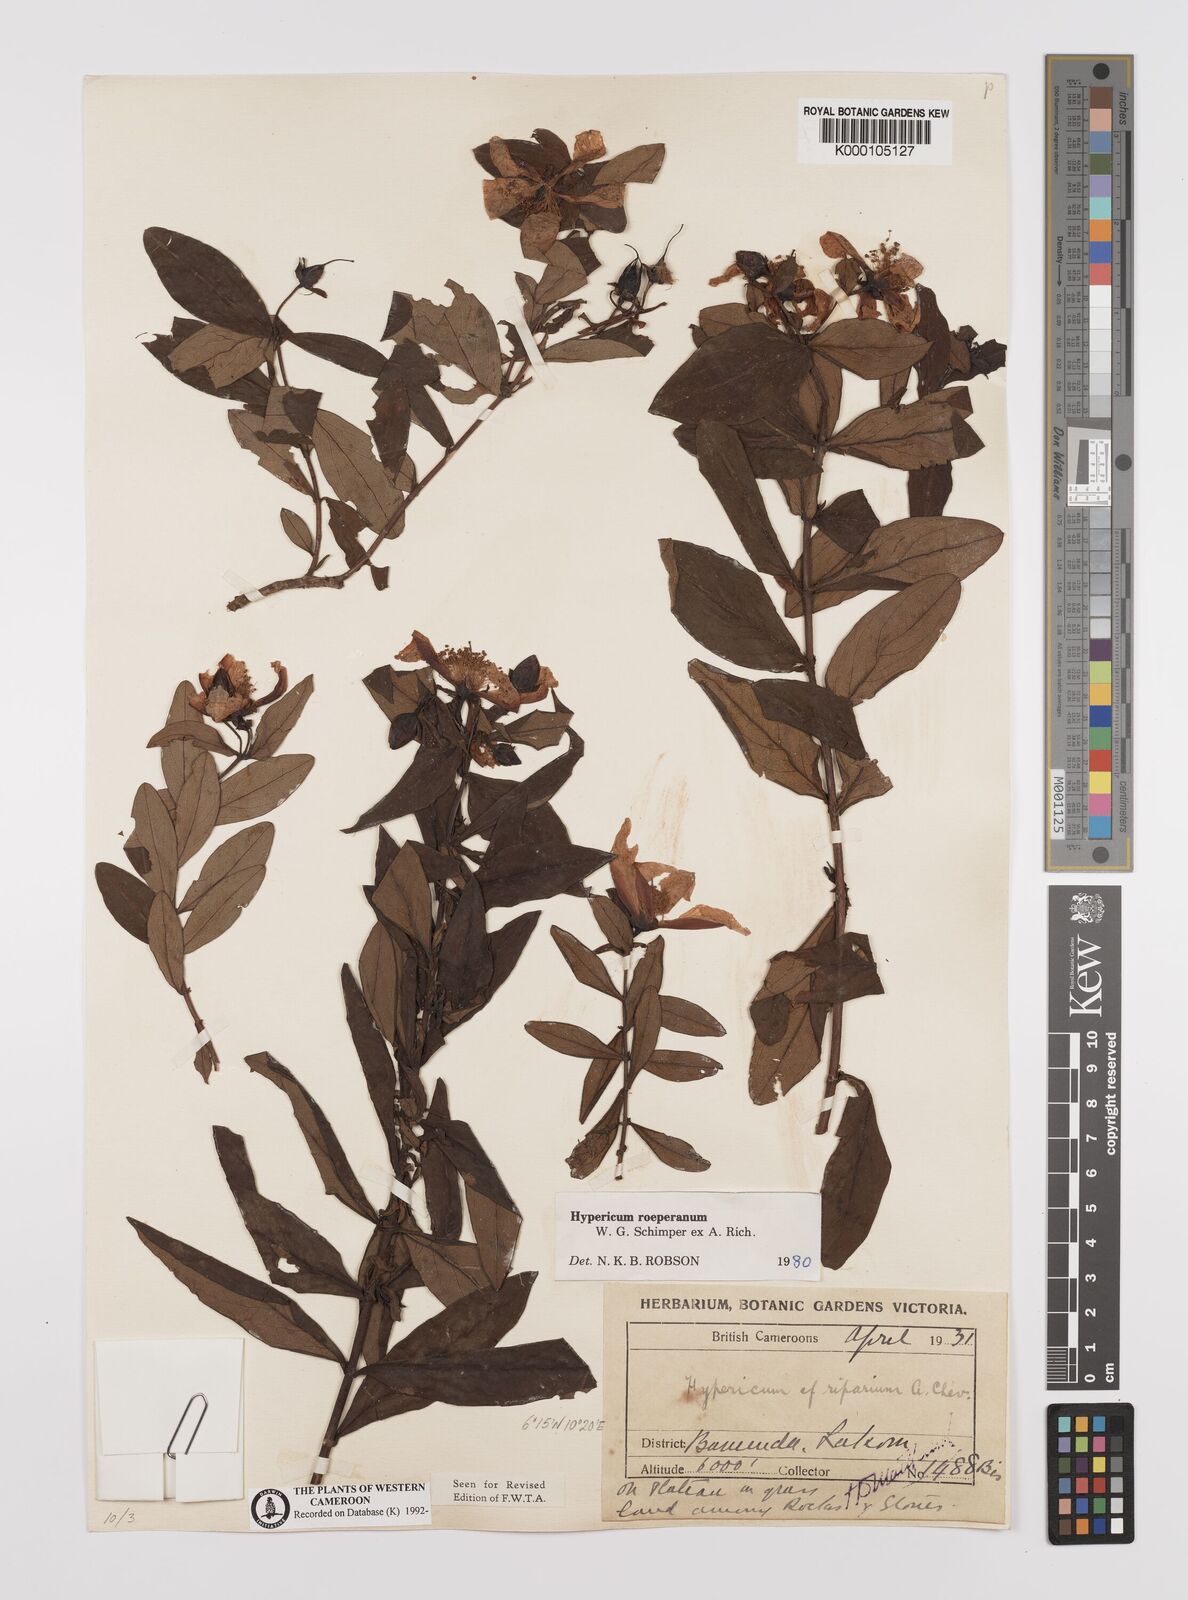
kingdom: Plantae
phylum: Tracheophyta
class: Magnoliopsida
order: Malpighiales
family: Hypericaceae
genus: Hypericum
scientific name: Hypericum
